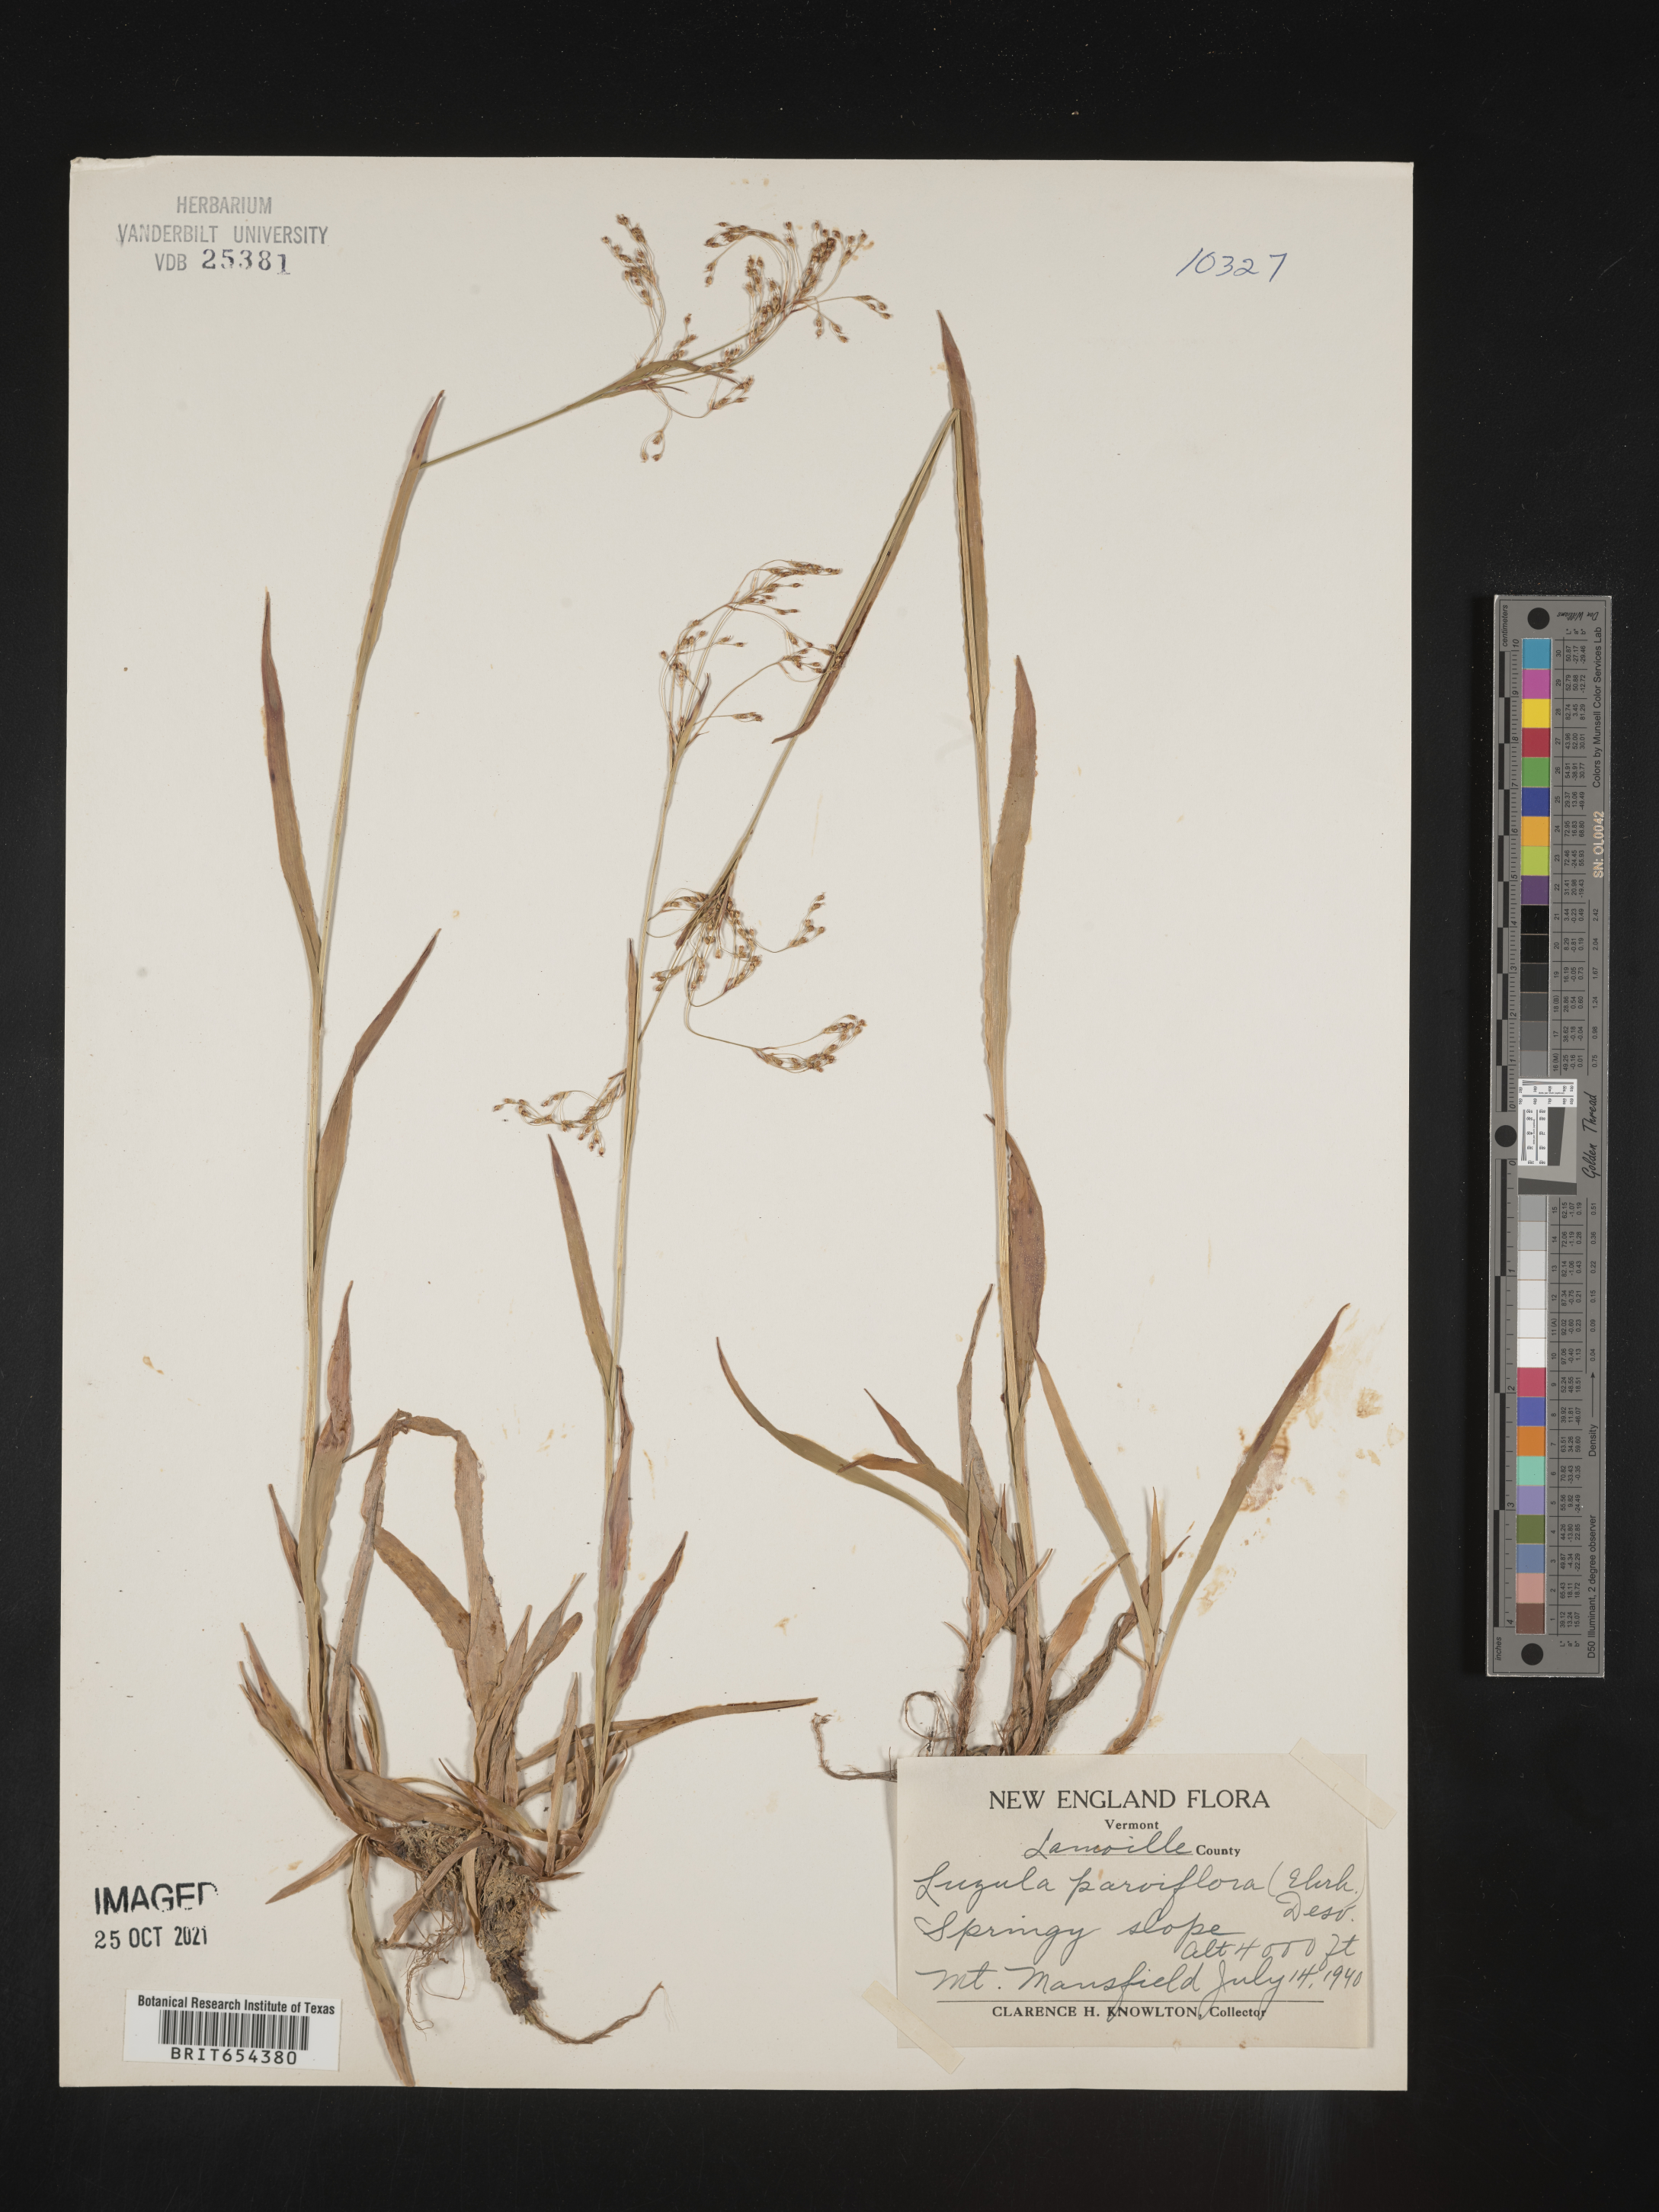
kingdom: Plantae
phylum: Tracheophyta
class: Liliopsida
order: Poales
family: Juncaceae
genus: Luzula
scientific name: Luzula parviflora
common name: Millet woodrush
